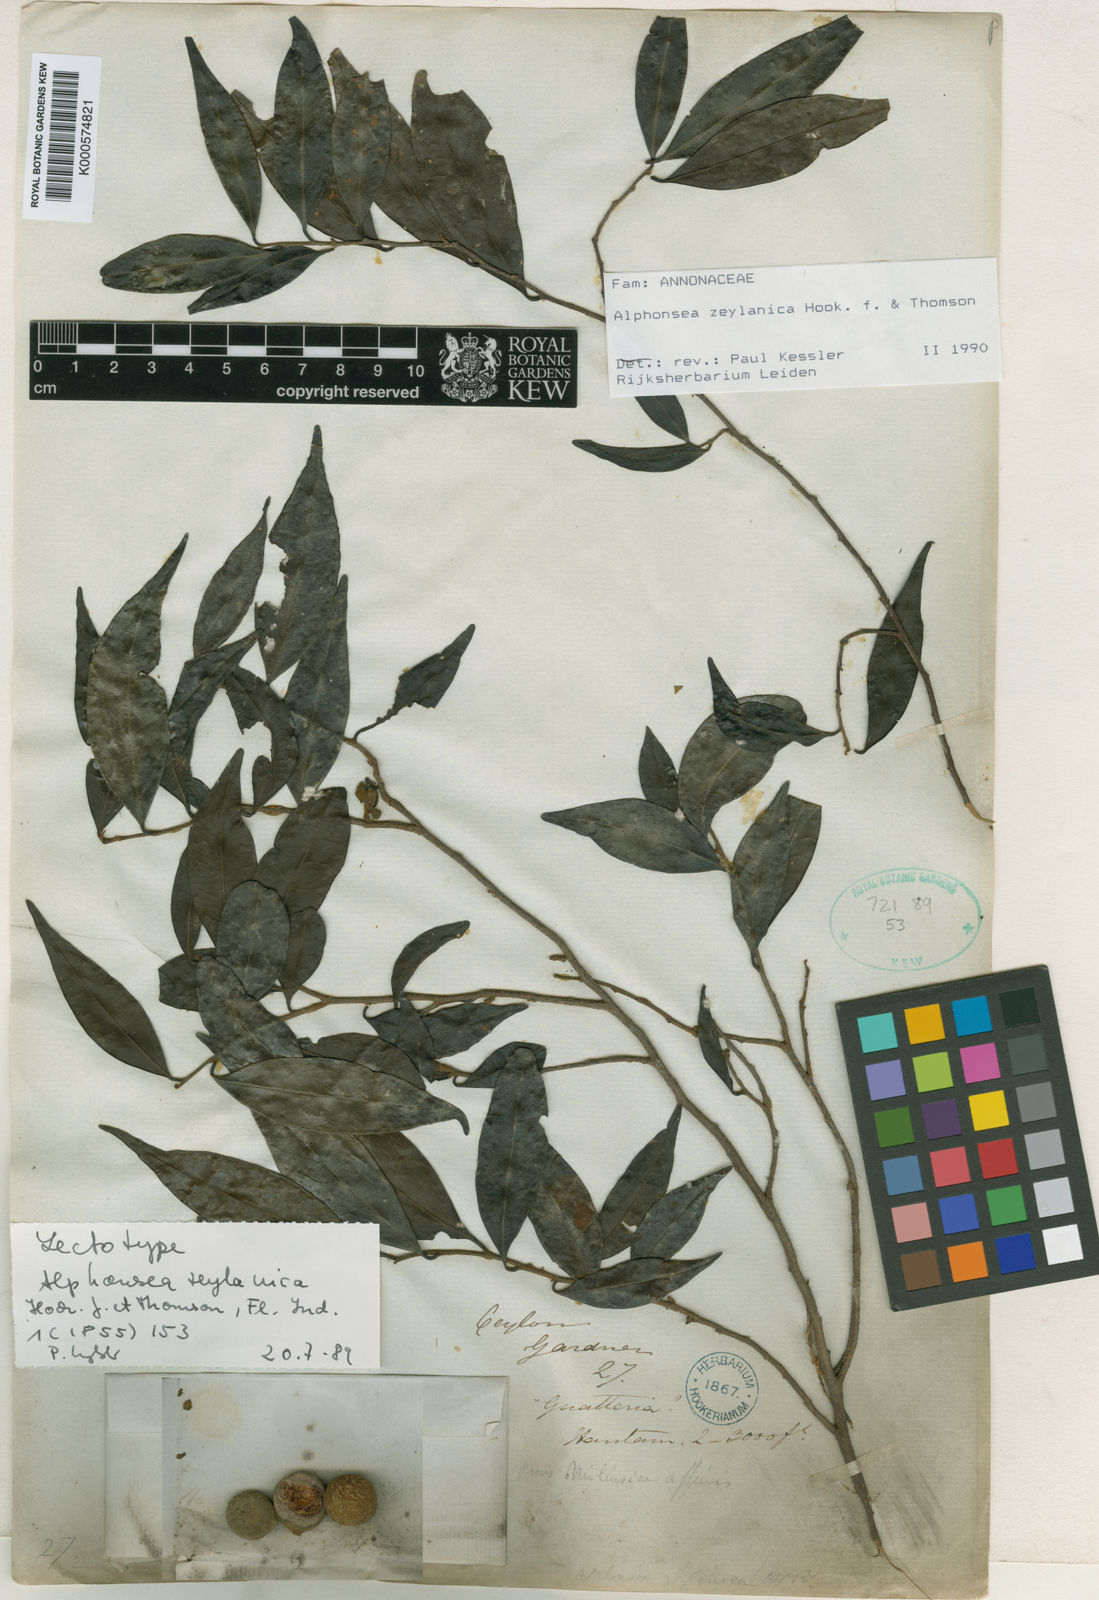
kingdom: Plantae
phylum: Tracheophyta
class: Magnoliopsida
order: Magnoliales
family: Annonaceae
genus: Alphonsea
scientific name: Alphonsea zeylanica
